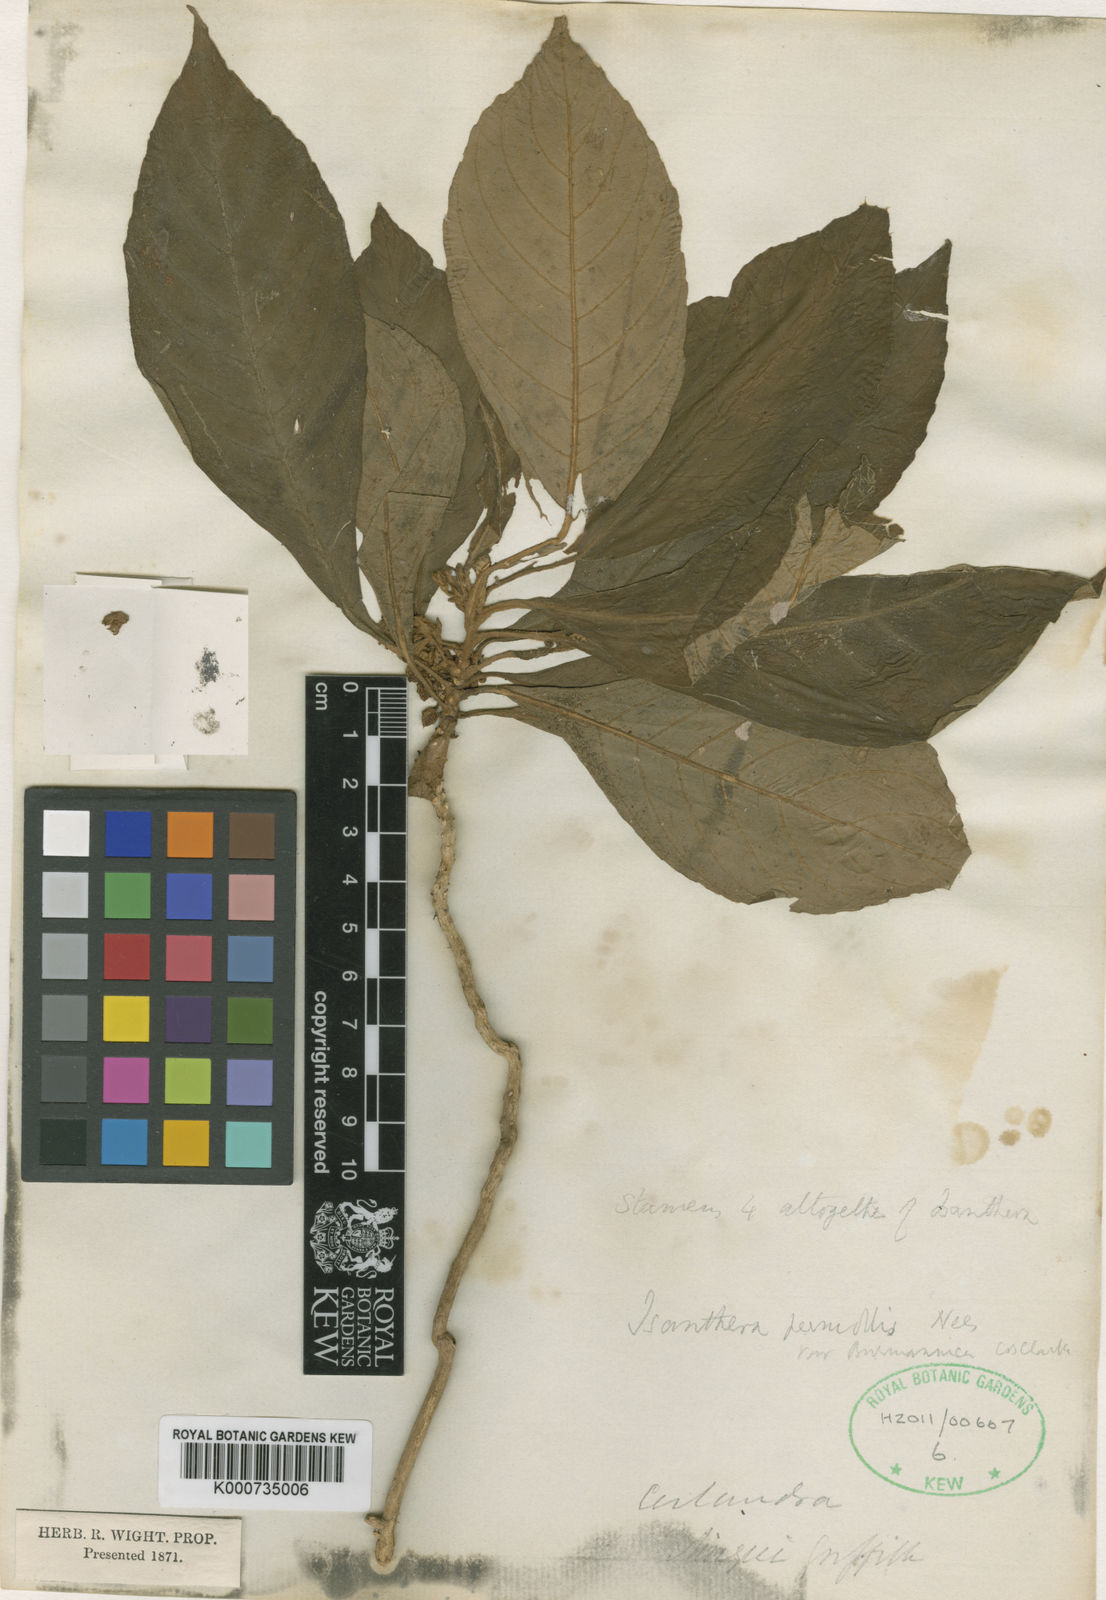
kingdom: Plantae
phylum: Tracheophyta
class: Magnoliopsida
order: Lamiales
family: Gesneriaceae
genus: Rhynchotechum
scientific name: Rhynchotechum permolle
